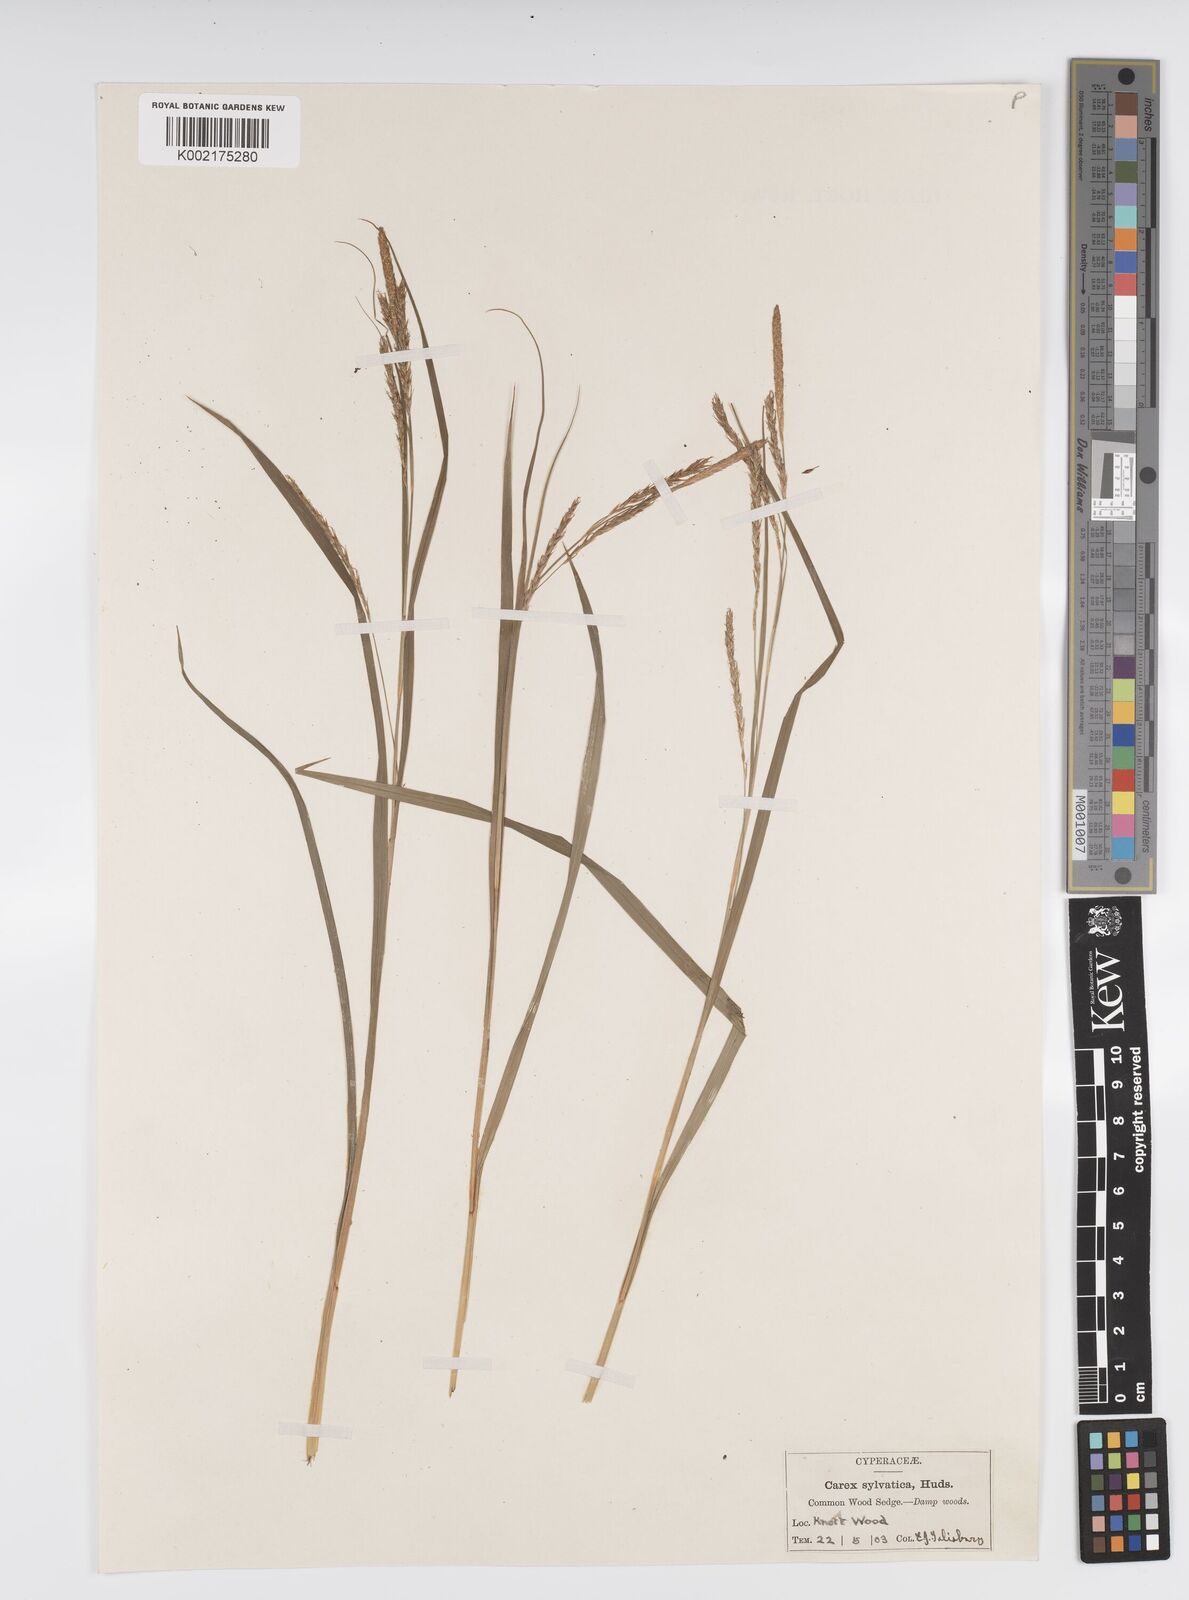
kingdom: Plantae
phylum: Tracheophyta
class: Liliopsida
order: Poales
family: Cyperaceae
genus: Carex
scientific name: Carex sylvatica
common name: Wood-sedge
